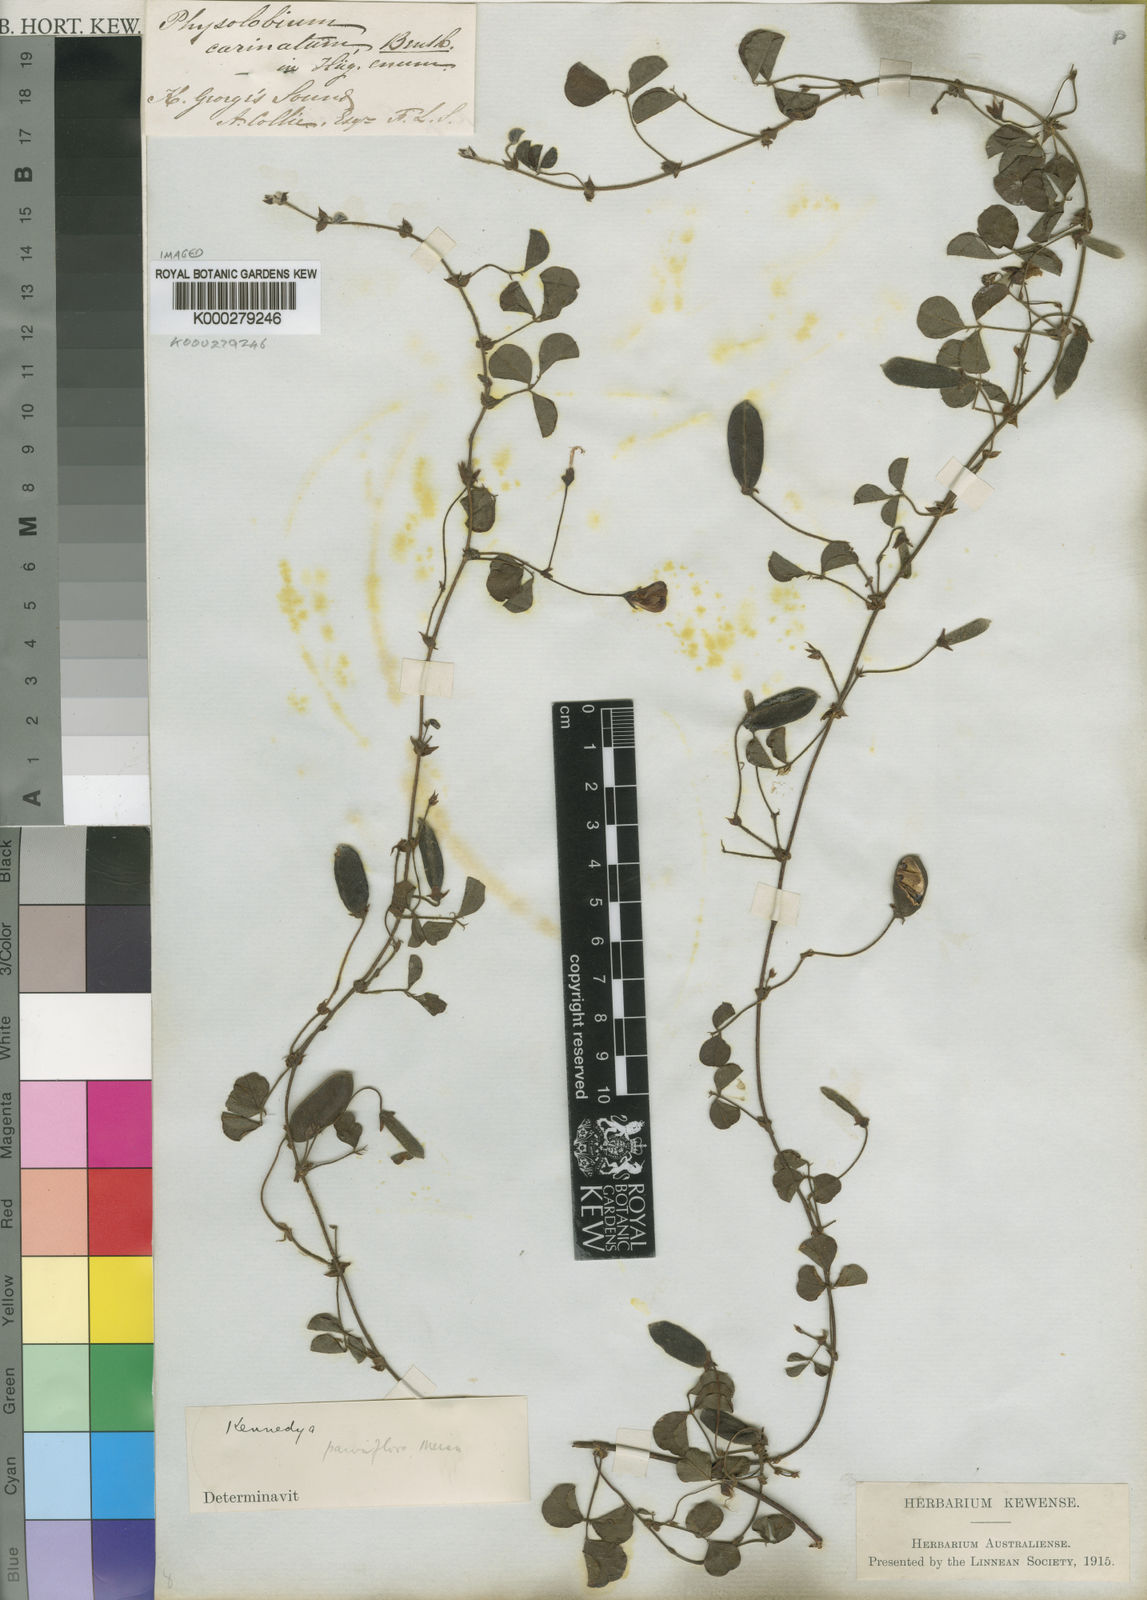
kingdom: Plantae
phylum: Tracheophyta
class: Magnoliopsida
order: Fabales
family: Fabaceae
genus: Kennedia
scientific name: Kennedia parviflora
